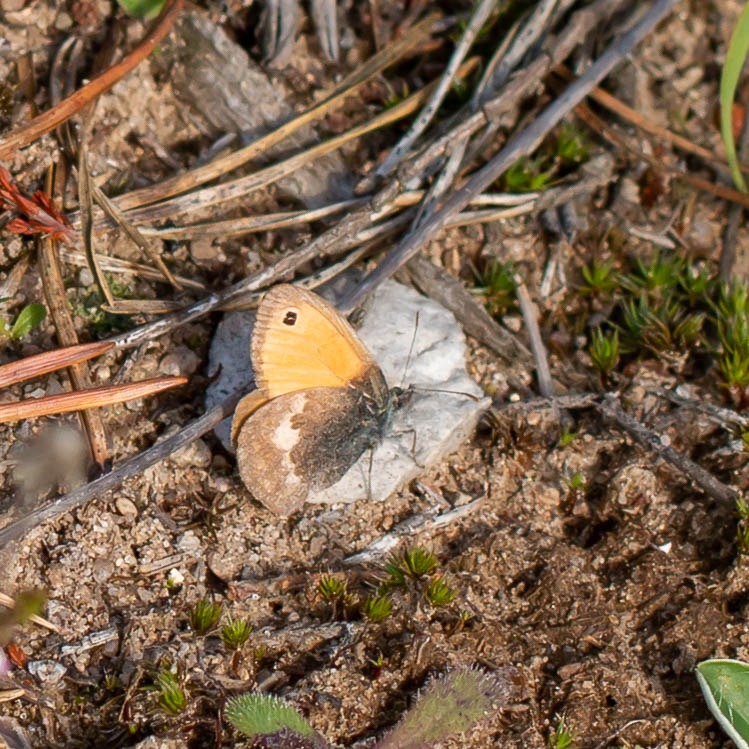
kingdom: Animalia
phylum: Arthropoda
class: Insecta
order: Lepidoptera
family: Nymphalidae
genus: Coenonympha
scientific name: Coenonympha pamphilus
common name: Okkergul randøje
